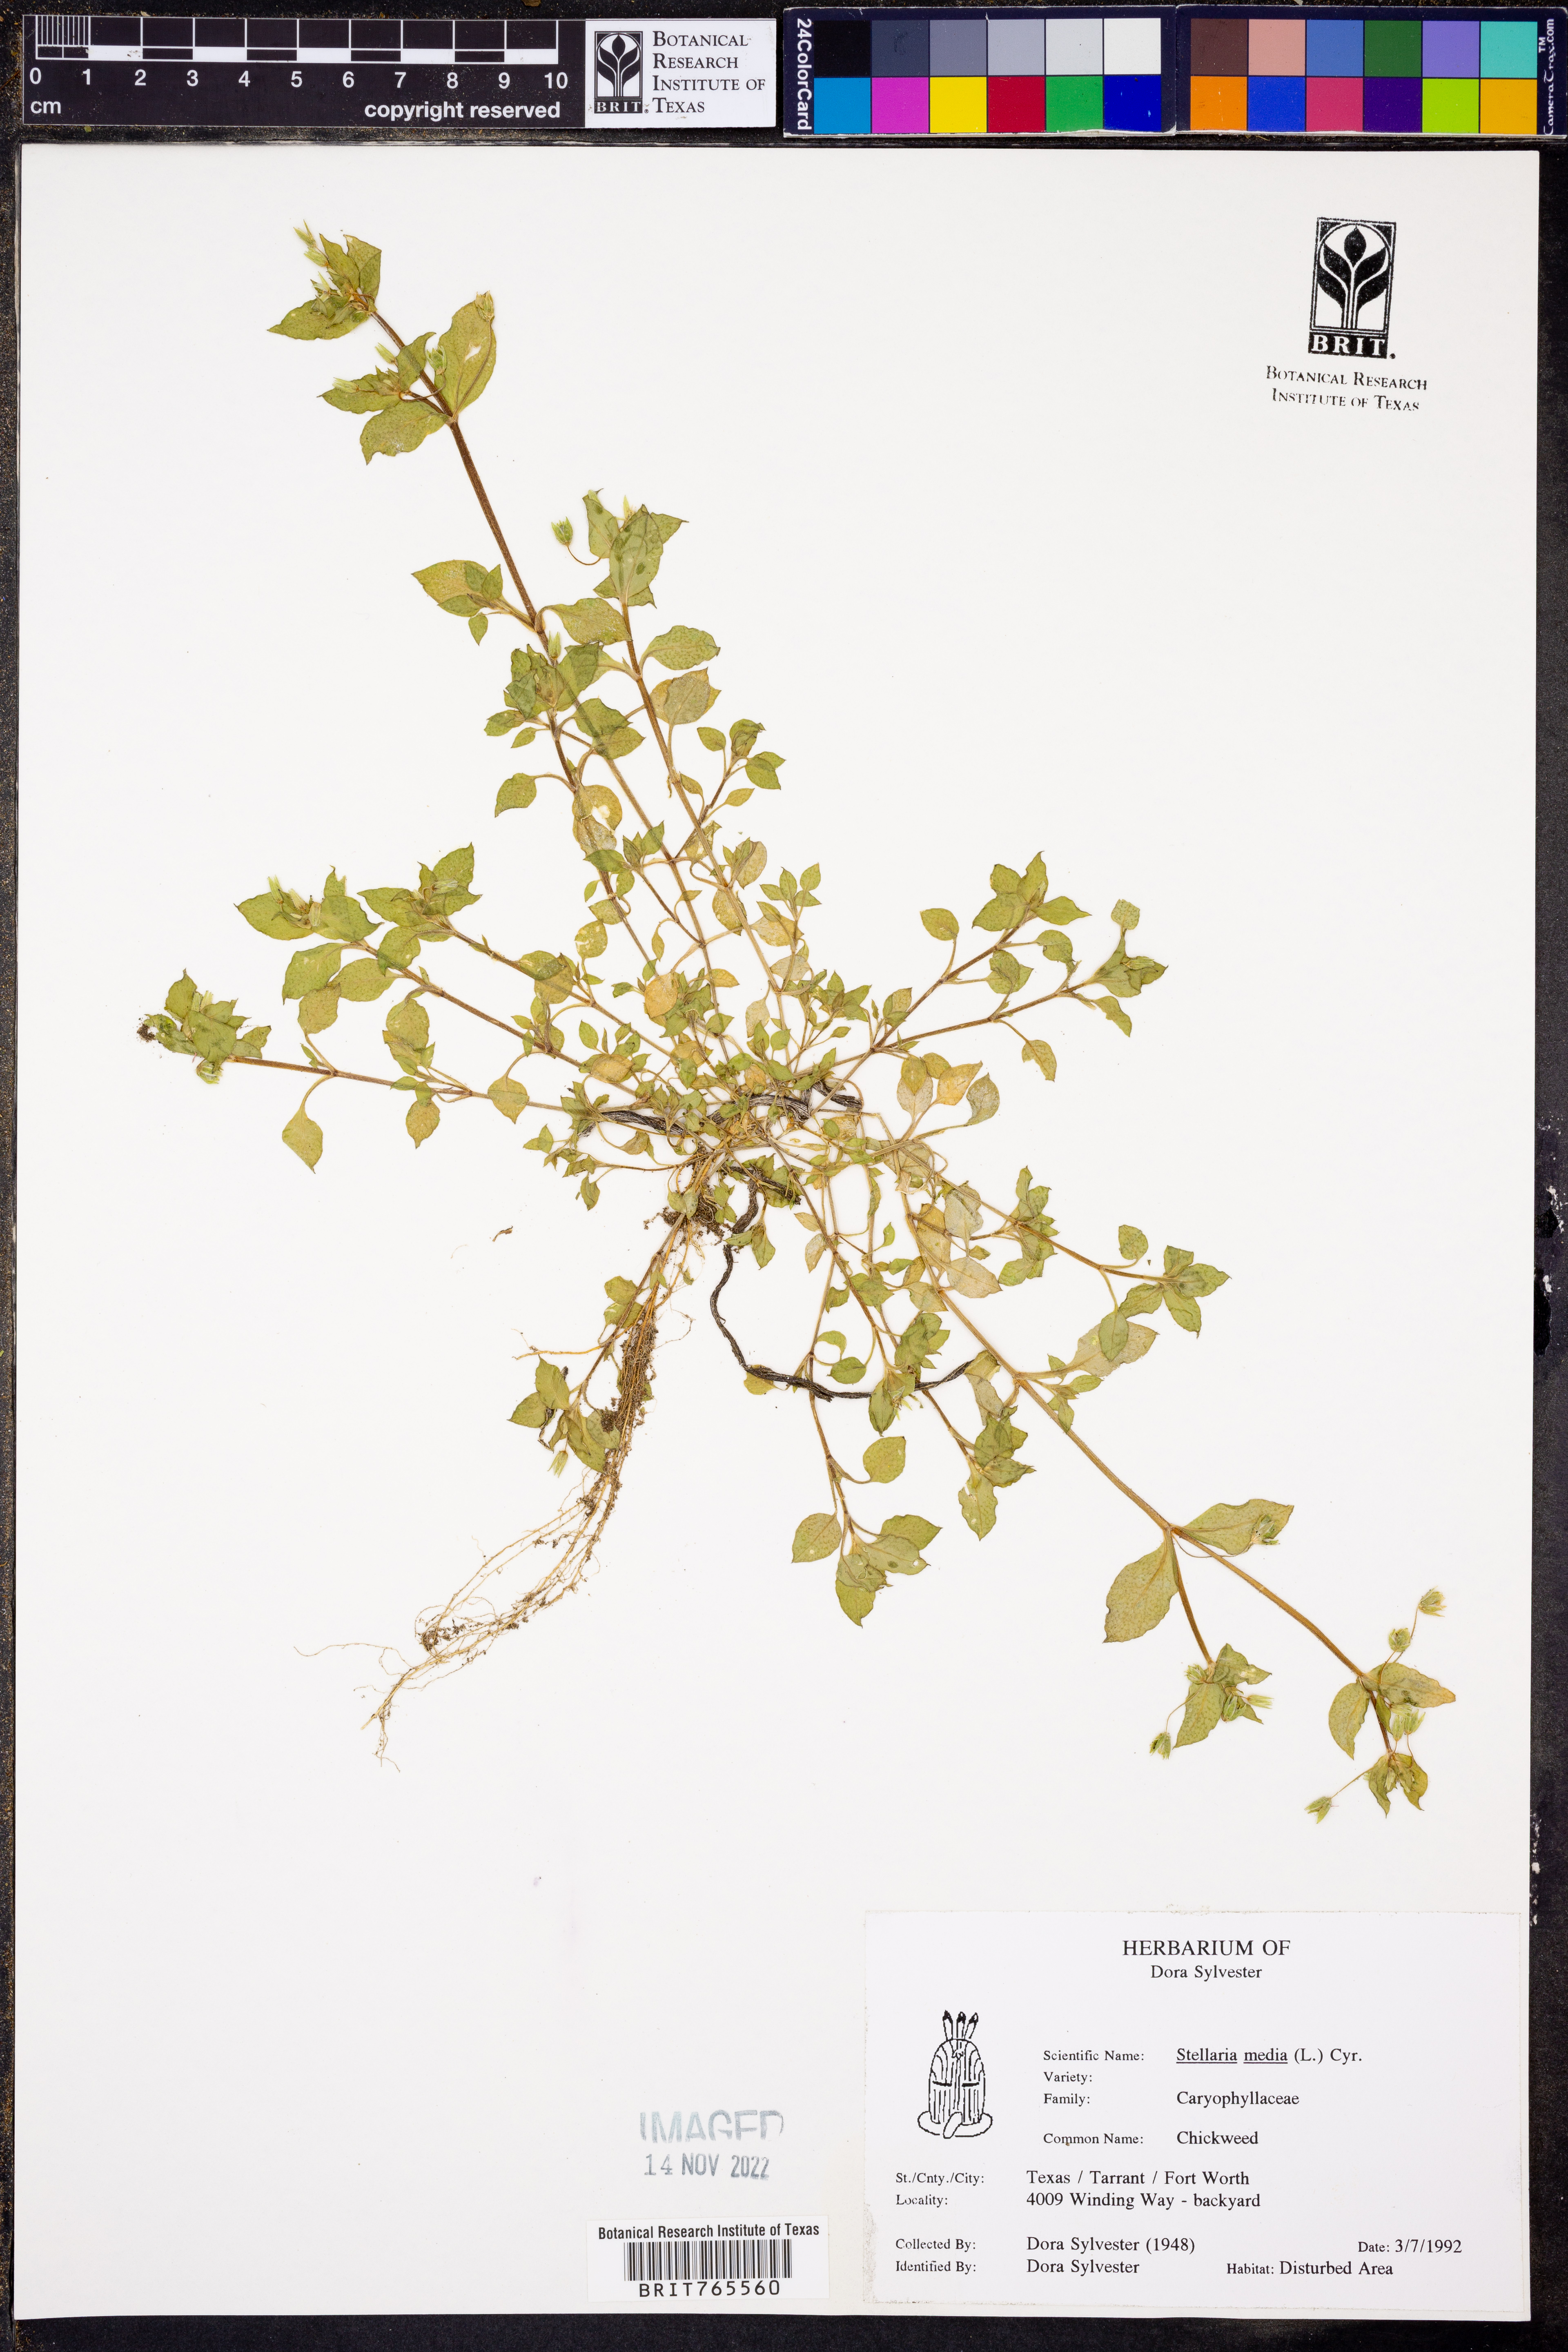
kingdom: Plantae
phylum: Tracheophyta
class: Magnoliopsida
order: Caryophyllales
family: Caryophyllaceae
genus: Stellaria
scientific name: Stellaria media
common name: Common chickweed
